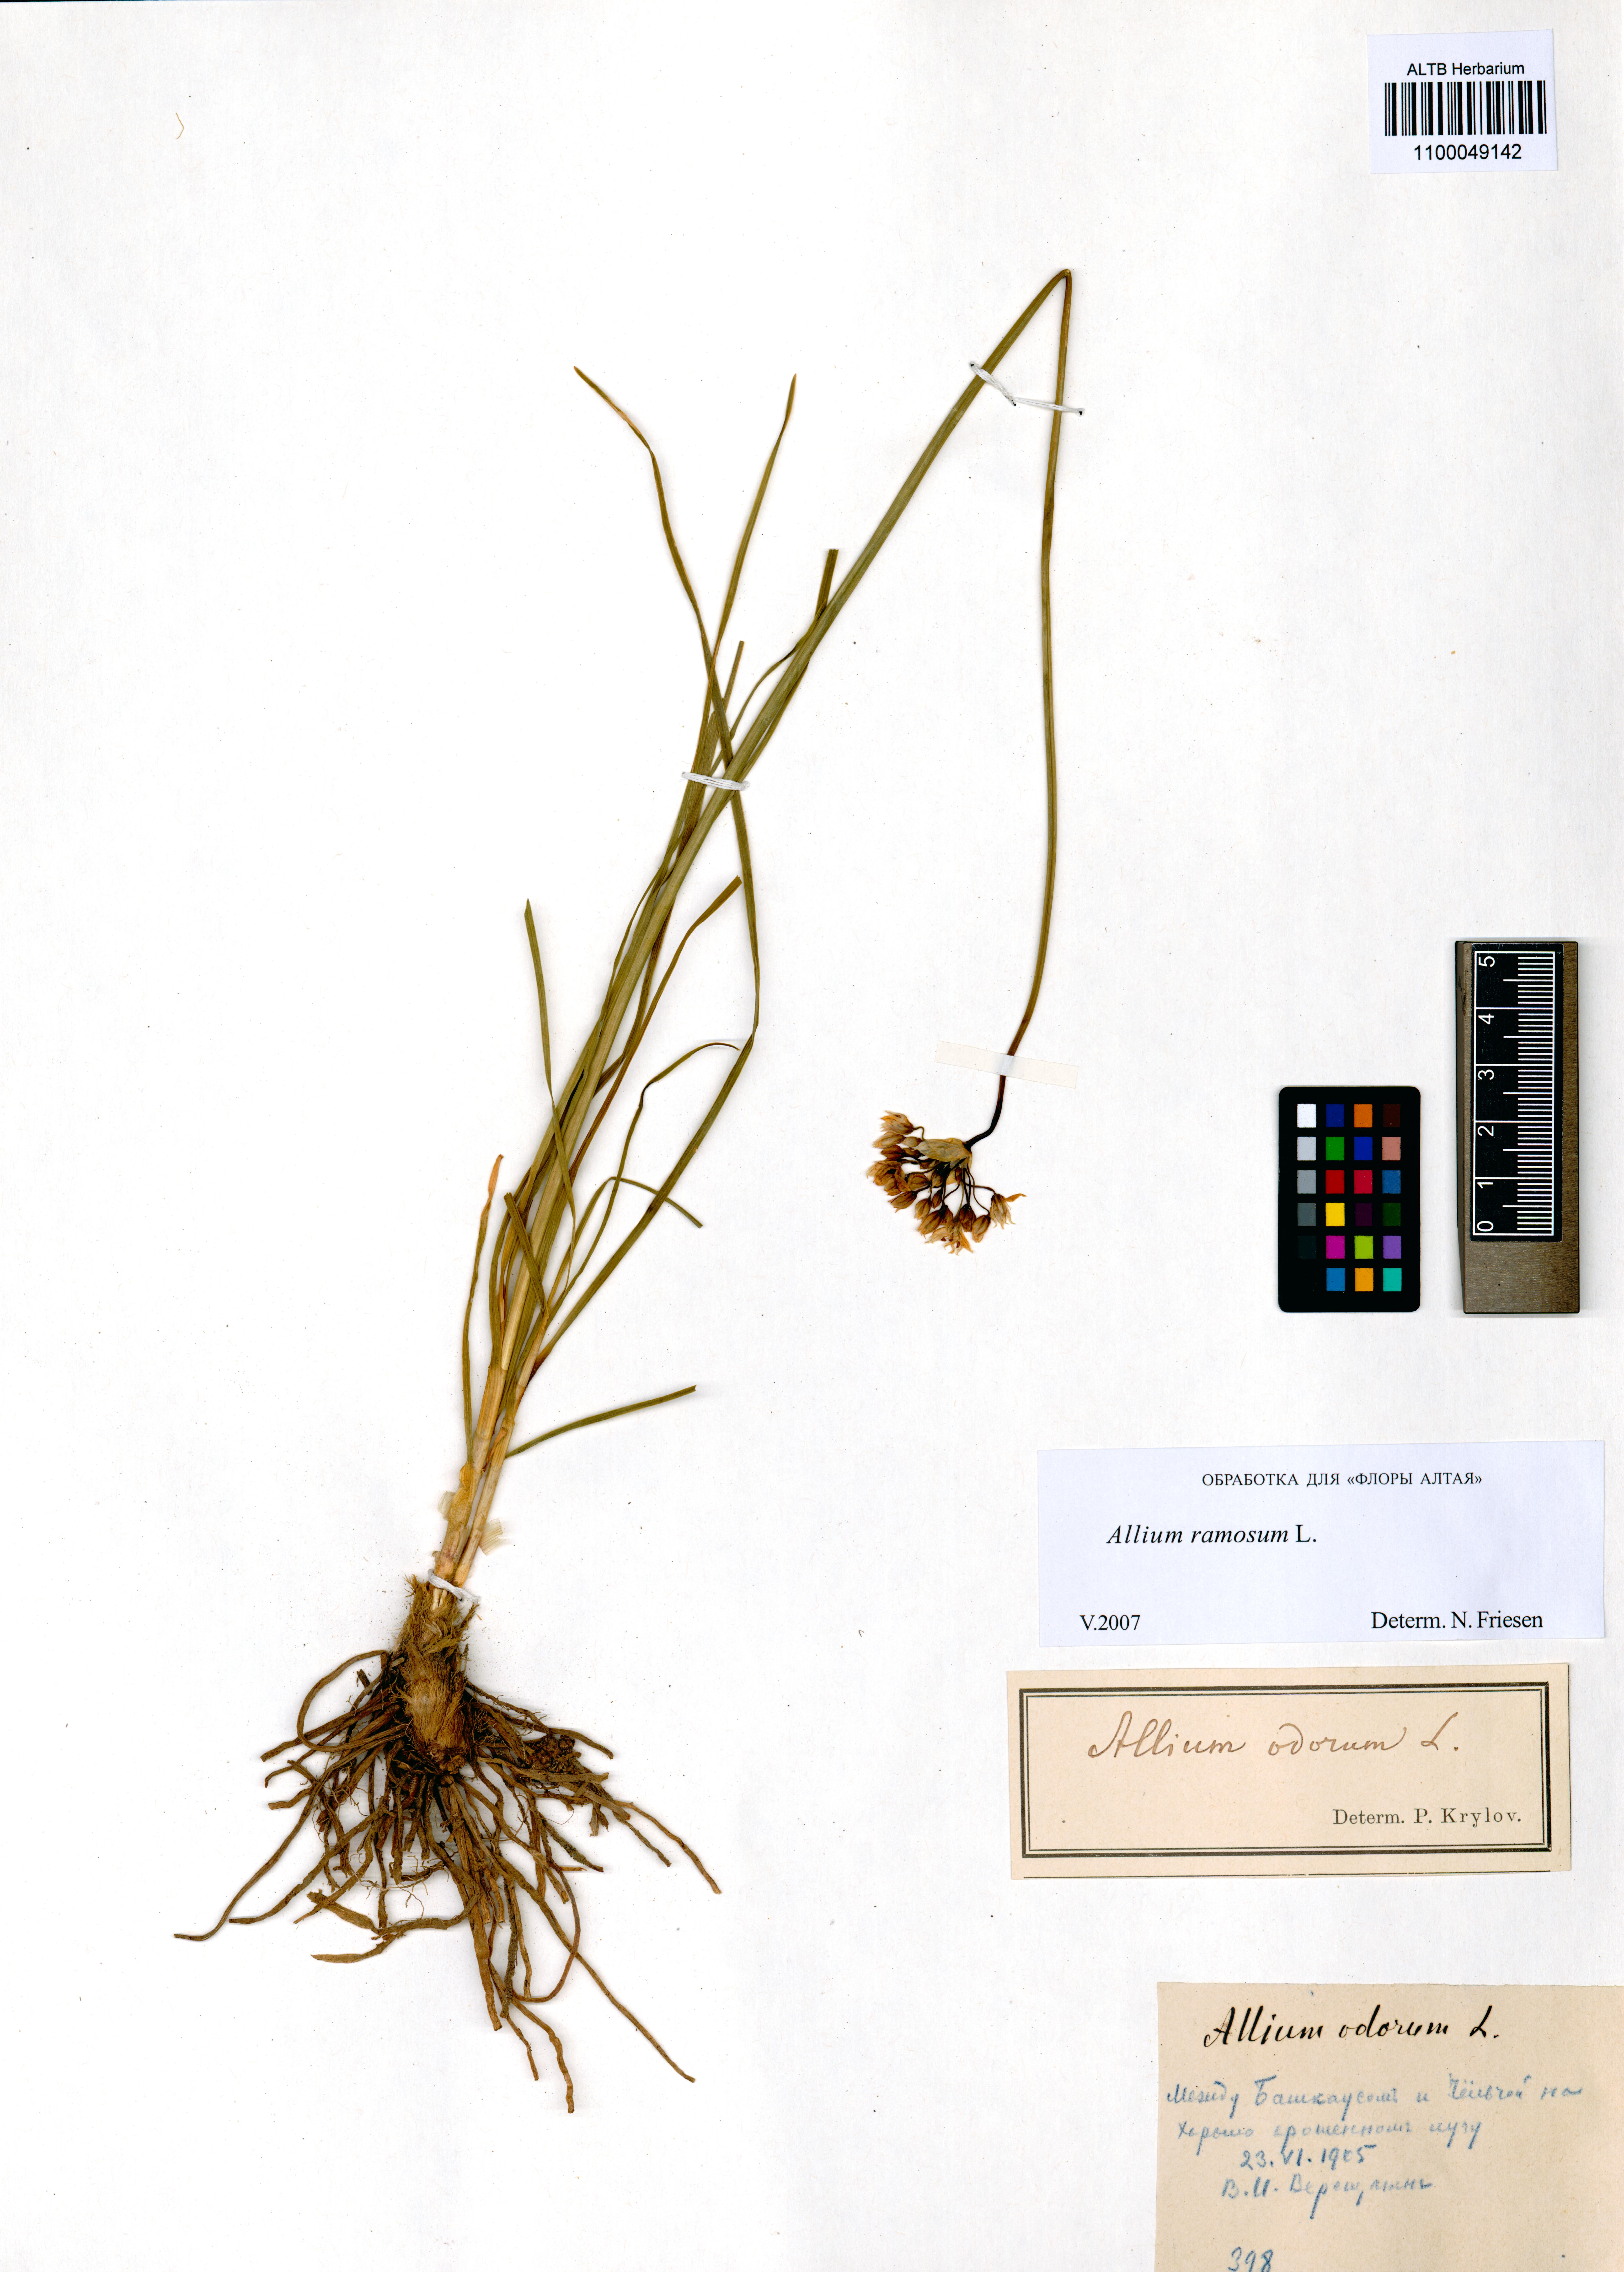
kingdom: Plantae
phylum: Tracheophyta
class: Liliopsida
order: Asparagales
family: Amaryllidaceae
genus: Allium
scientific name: Allium ramosum
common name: Fragrant garlic
